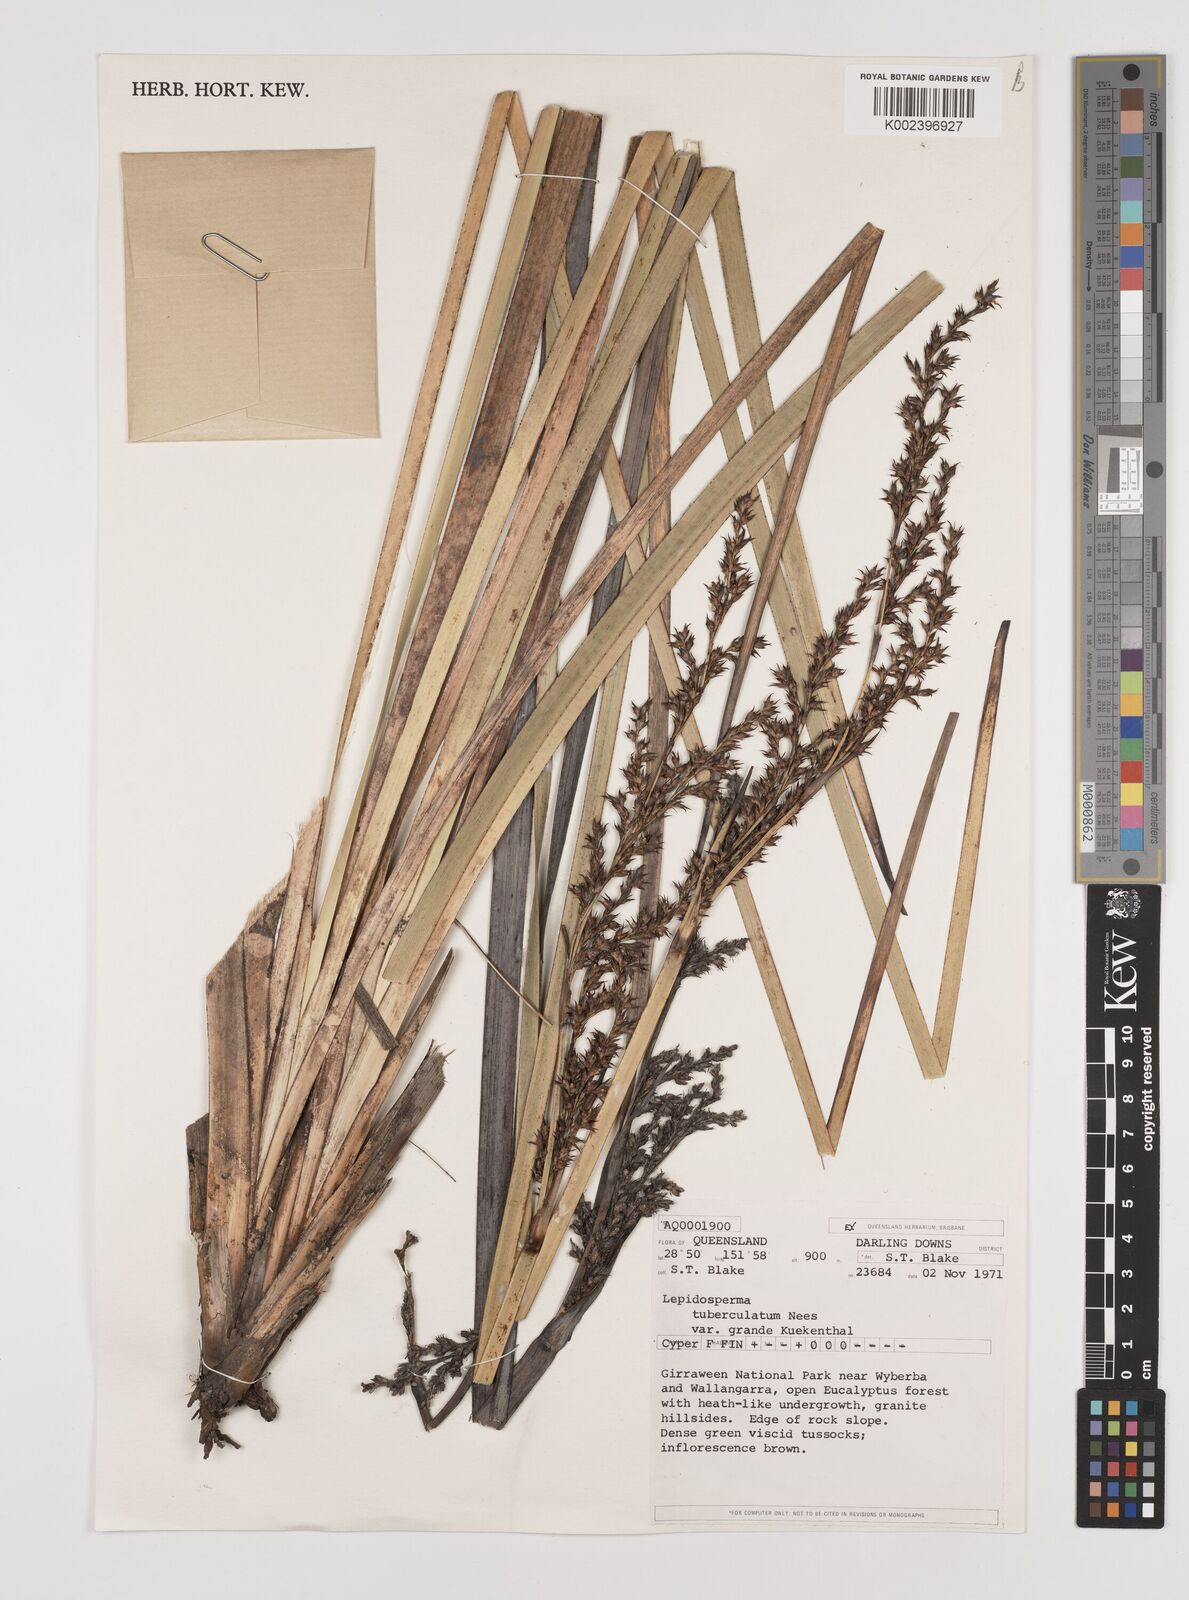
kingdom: Plantae
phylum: Tracheophyta
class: Liliopsida
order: Poales
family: Cyperaceae
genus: Lepidosperma
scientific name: Lepidosperma tuberculatum
